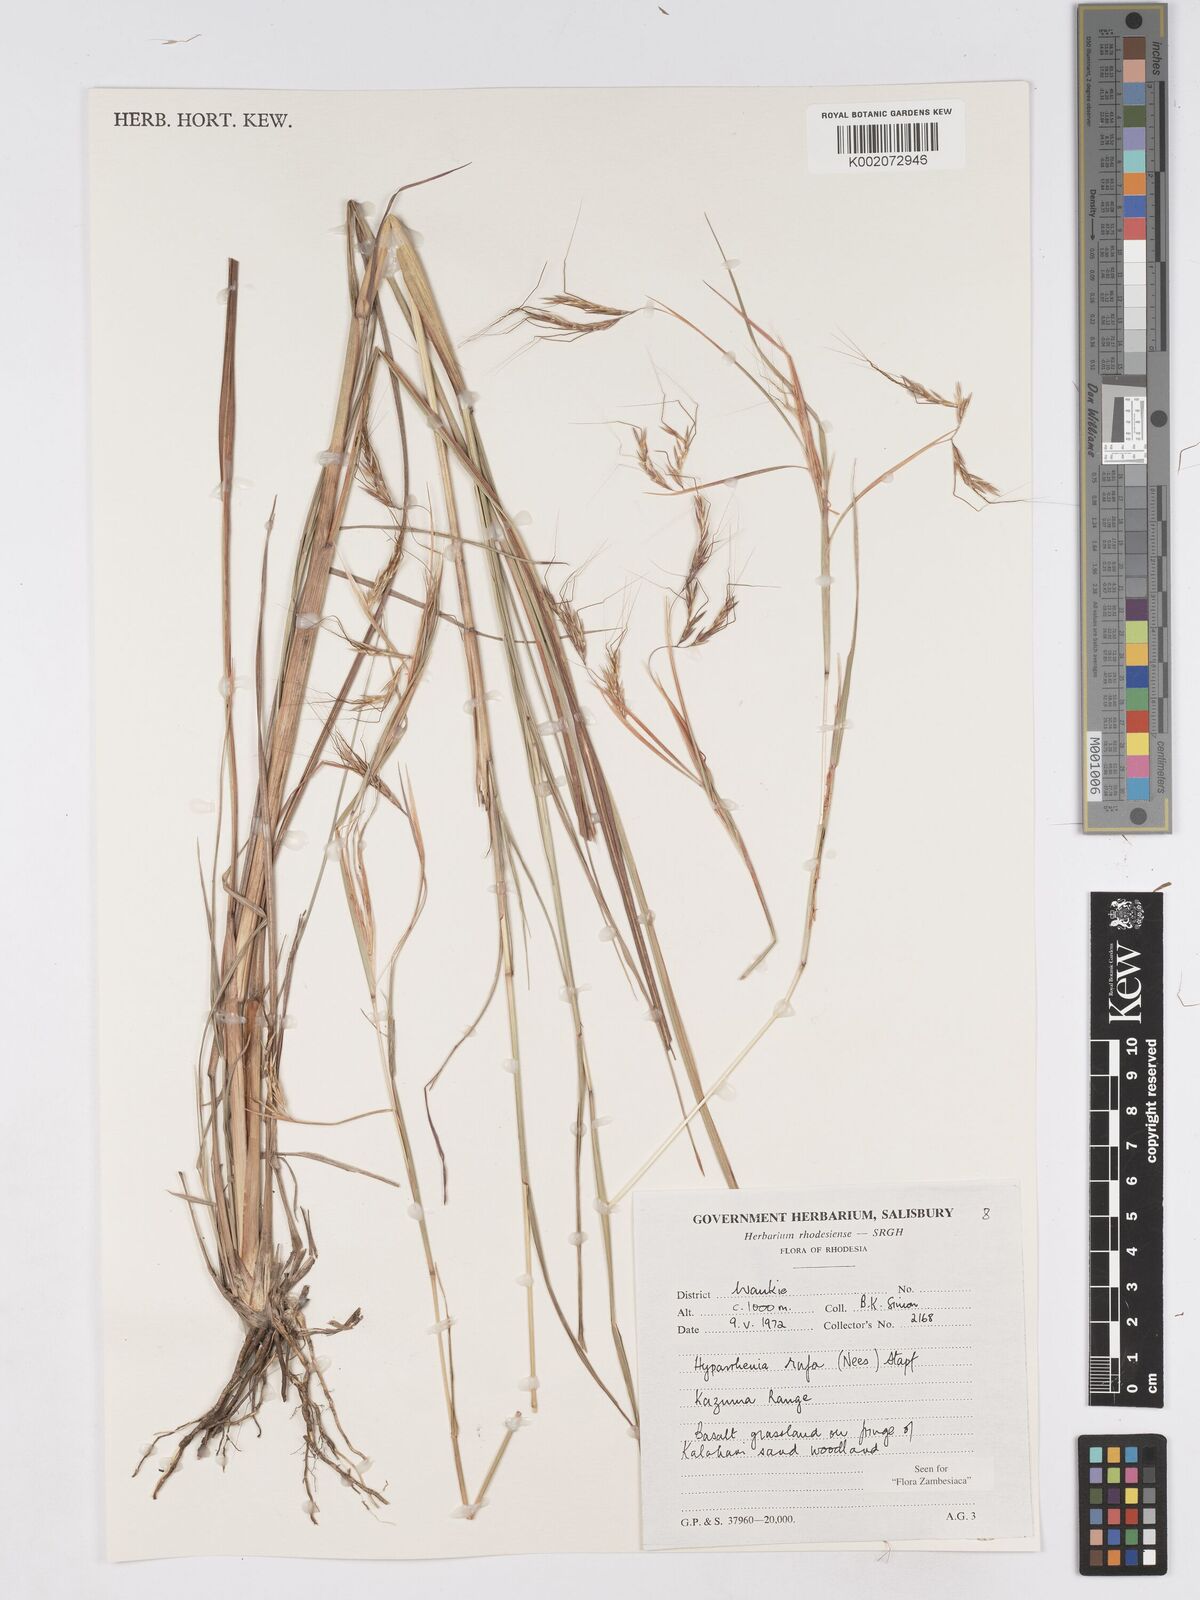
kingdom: Plantae
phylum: Tracheophyta
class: Liliopsida
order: Poales
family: Poaceae
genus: Hyparrhenia
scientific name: Hyparrhenia rufa
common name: Jaraguagrass
